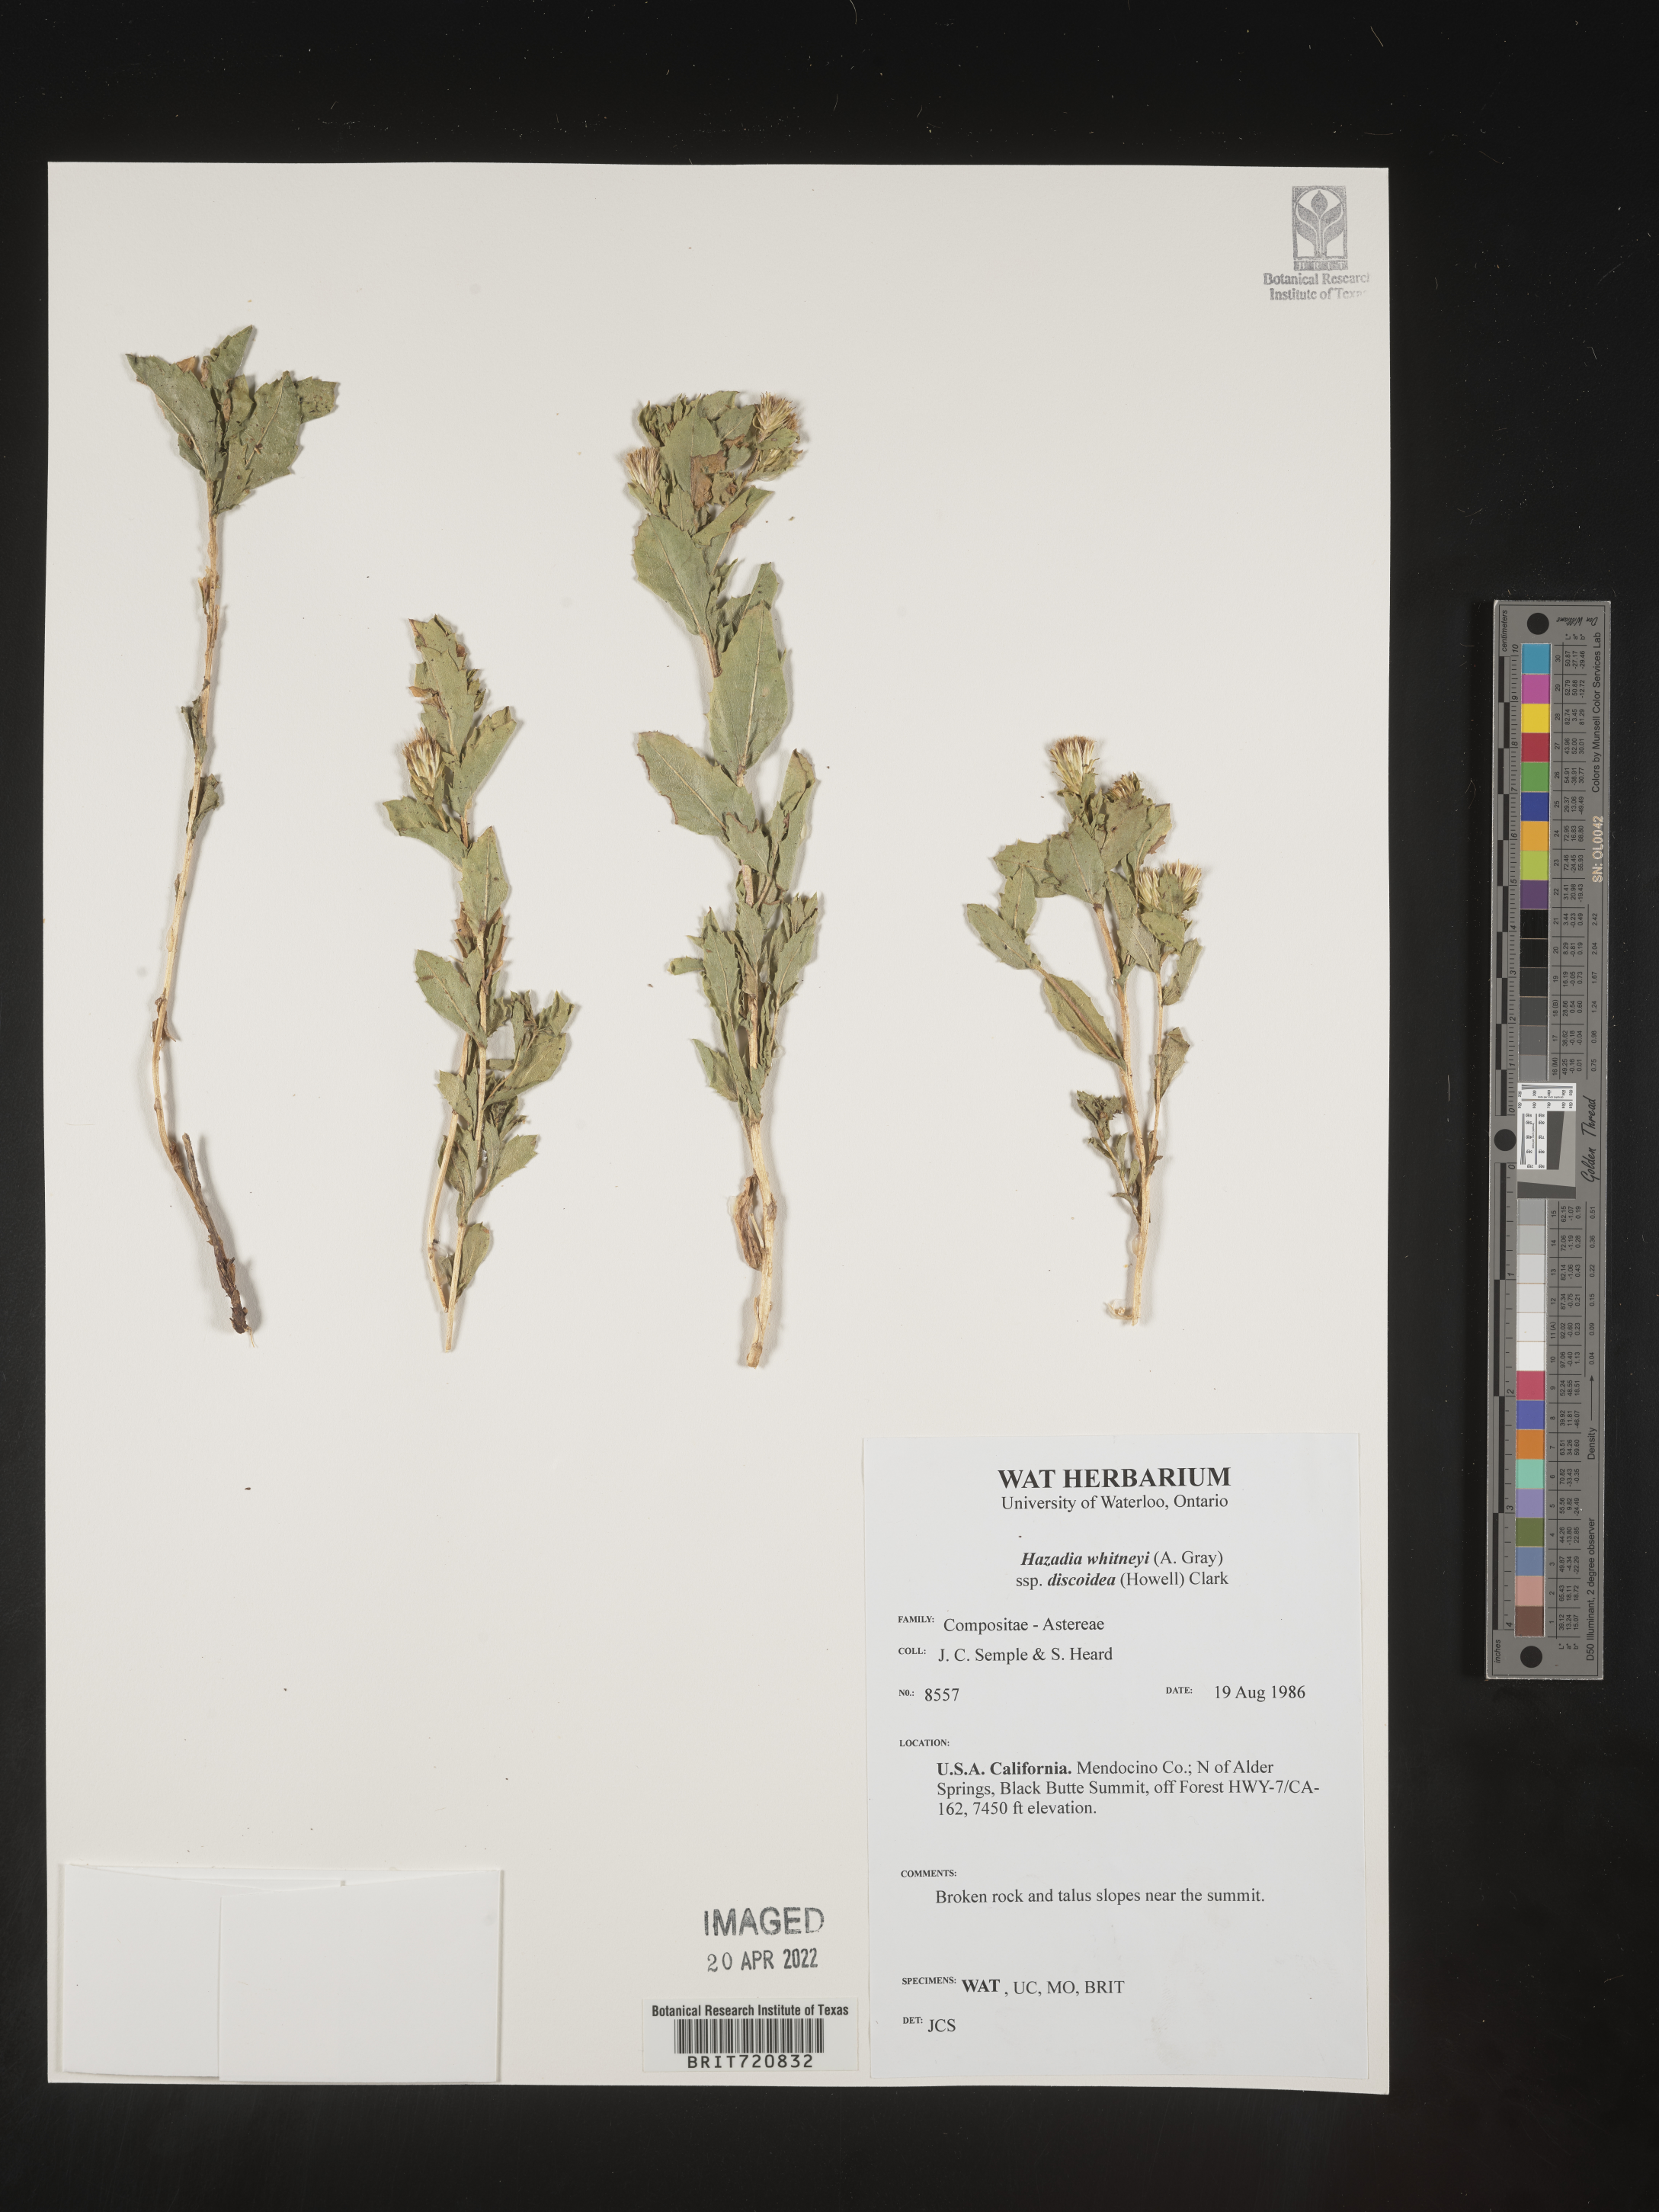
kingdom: Plantae
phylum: Tracheophyta
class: Magnoliopsida
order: Asterales
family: Asteraceae
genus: Hazardia
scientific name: Hazardia
